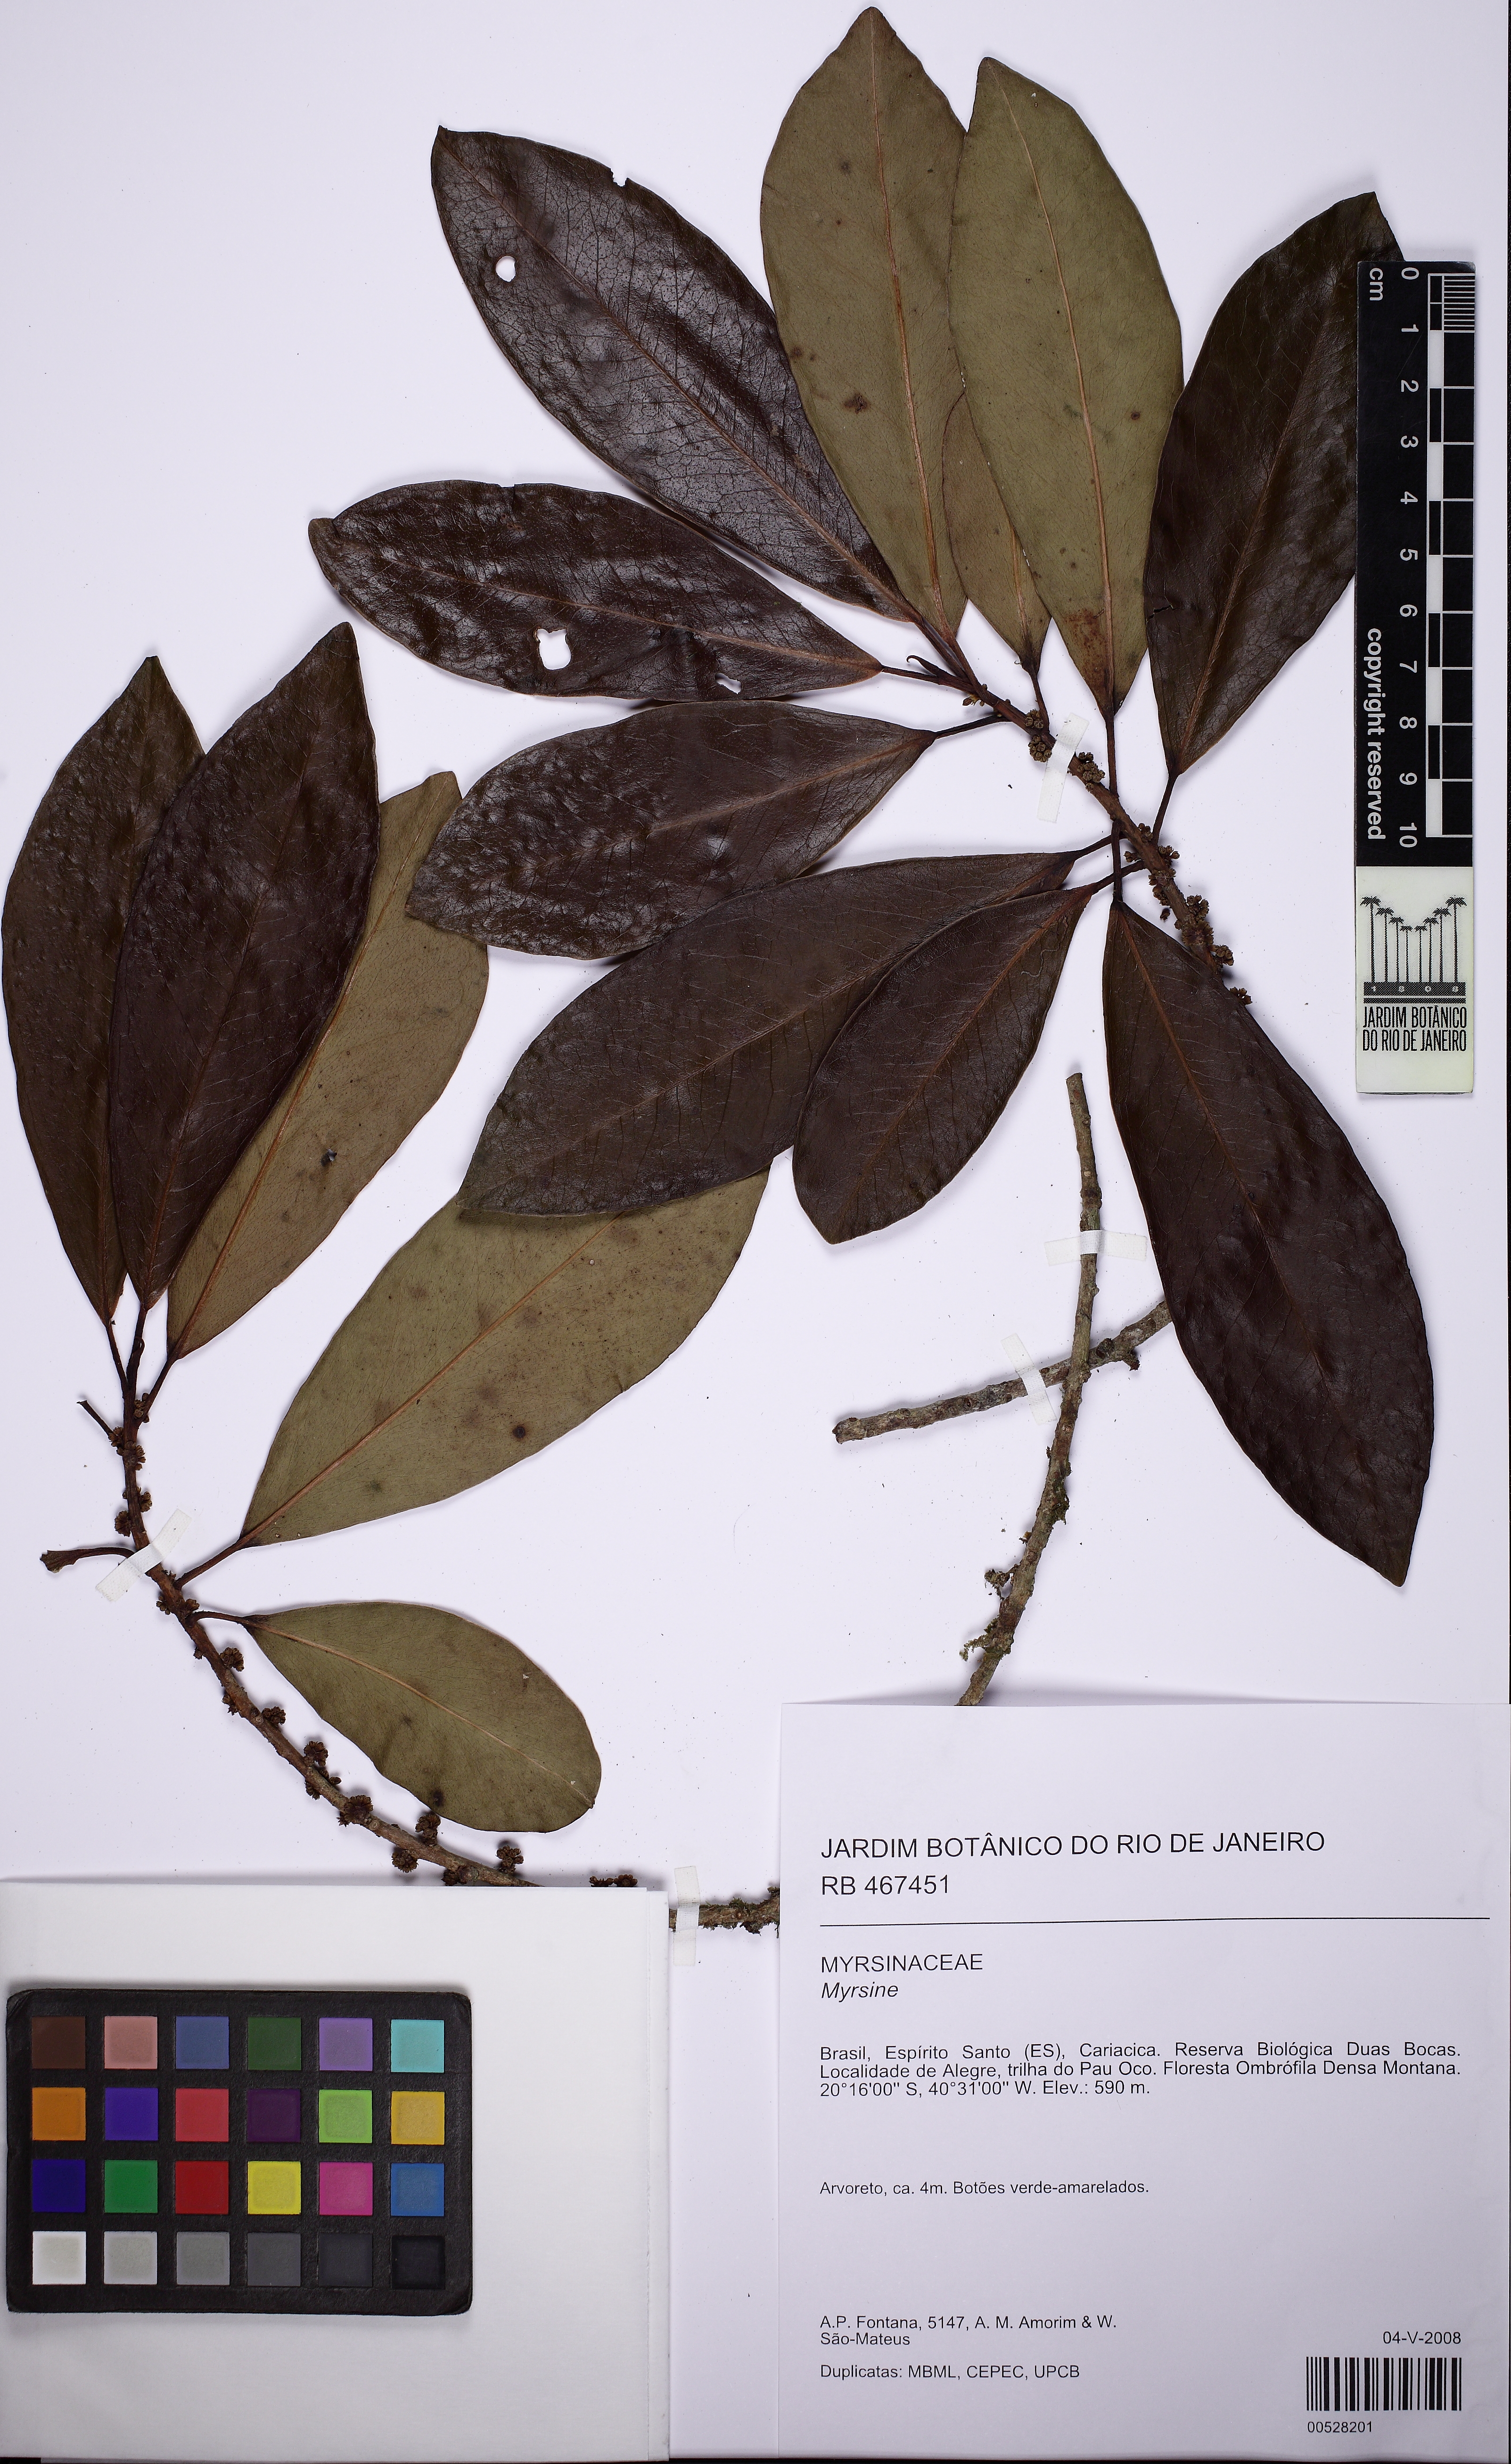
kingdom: Plantae
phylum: Tracheophyta
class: Magnoliopsida
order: Ericales
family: Primulaceae
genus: Myrsine
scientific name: Myrsine balansae
